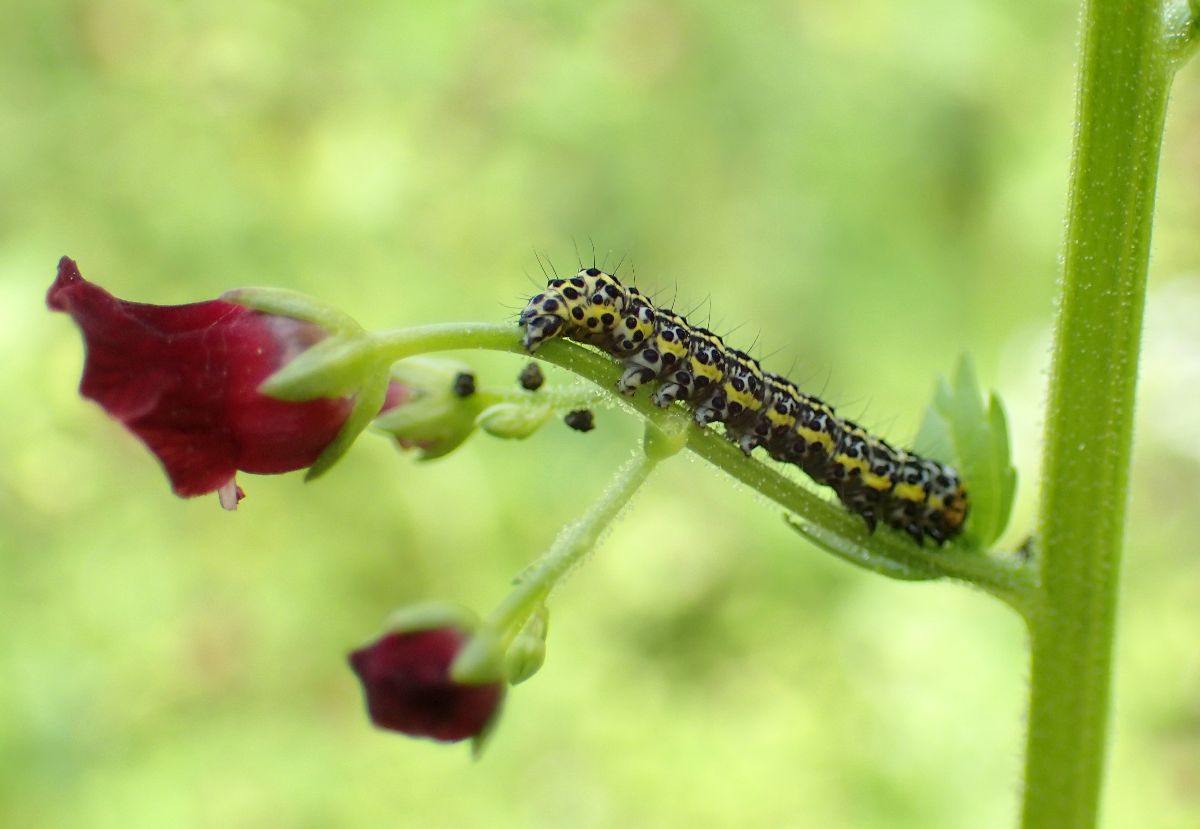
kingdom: Plantae
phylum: Tracheophyta
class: Magnoliopsida
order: Lamiales
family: Scrophulariaceae
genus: Scrophularia
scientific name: Scrophularia peregrina
